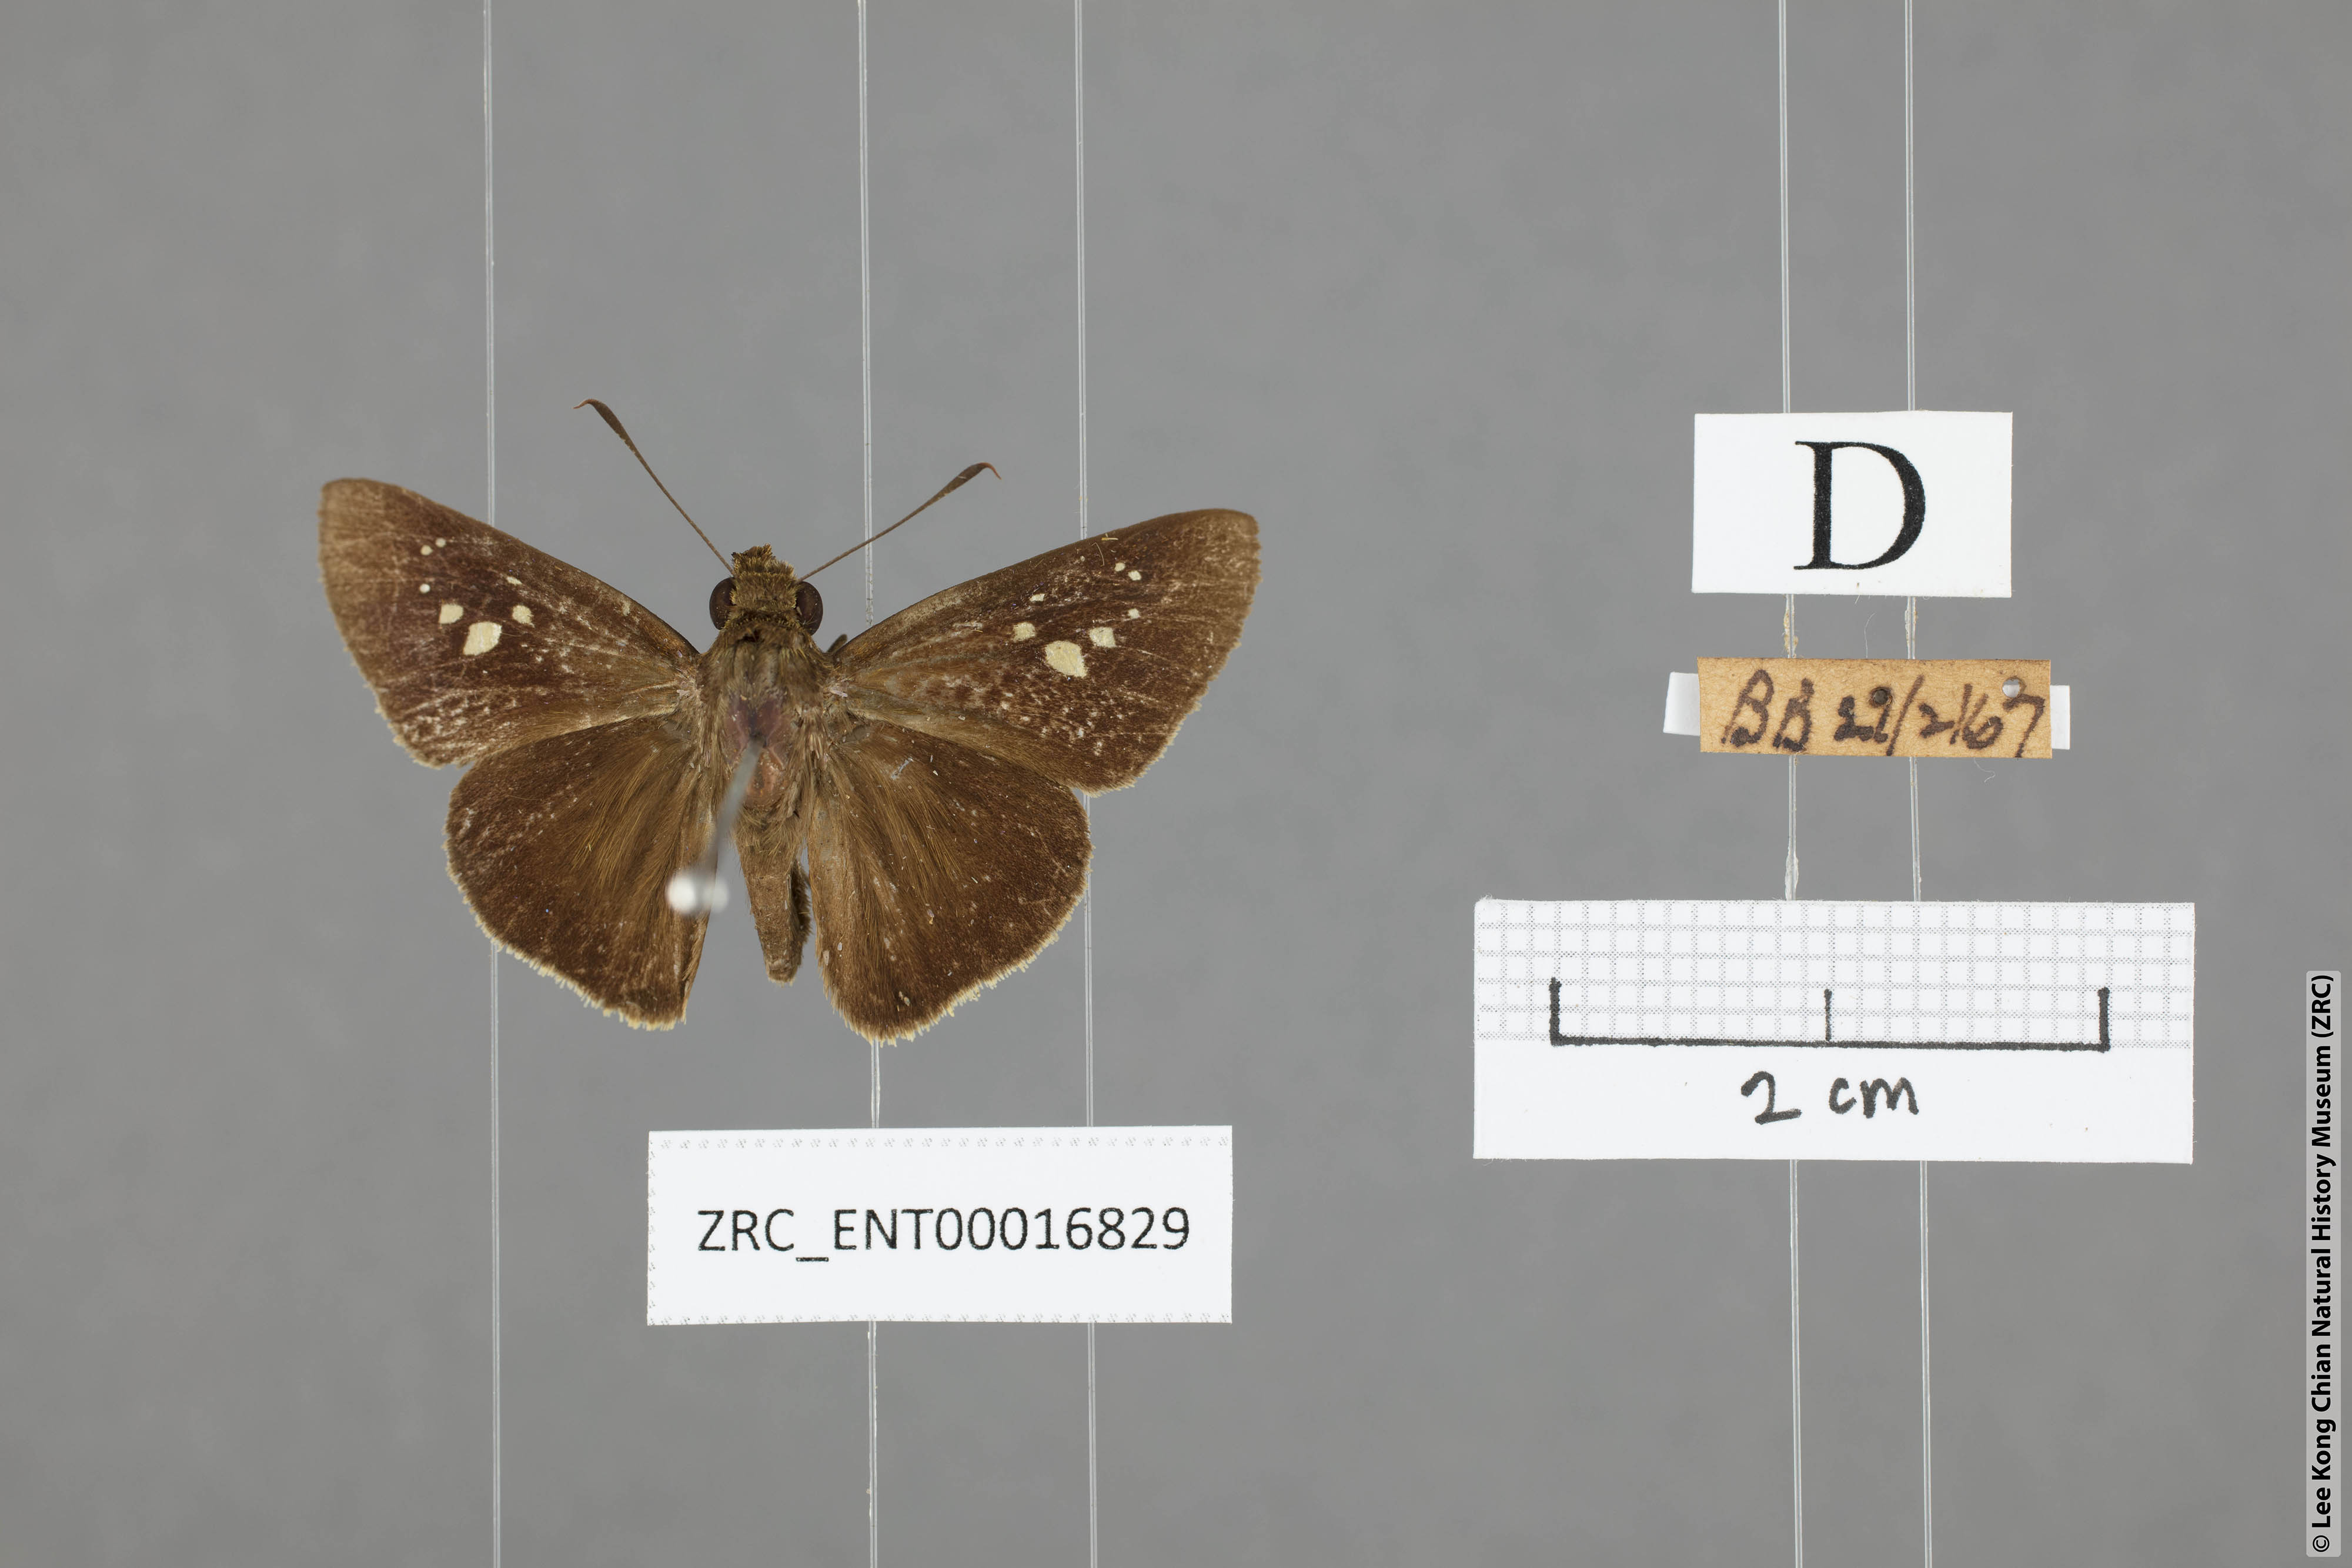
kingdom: Animalia
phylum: Arthropoda
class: Insecta
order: Lepidoptera
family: Hesperiidae
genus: Caltoris
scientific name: Caltoris cormasa
